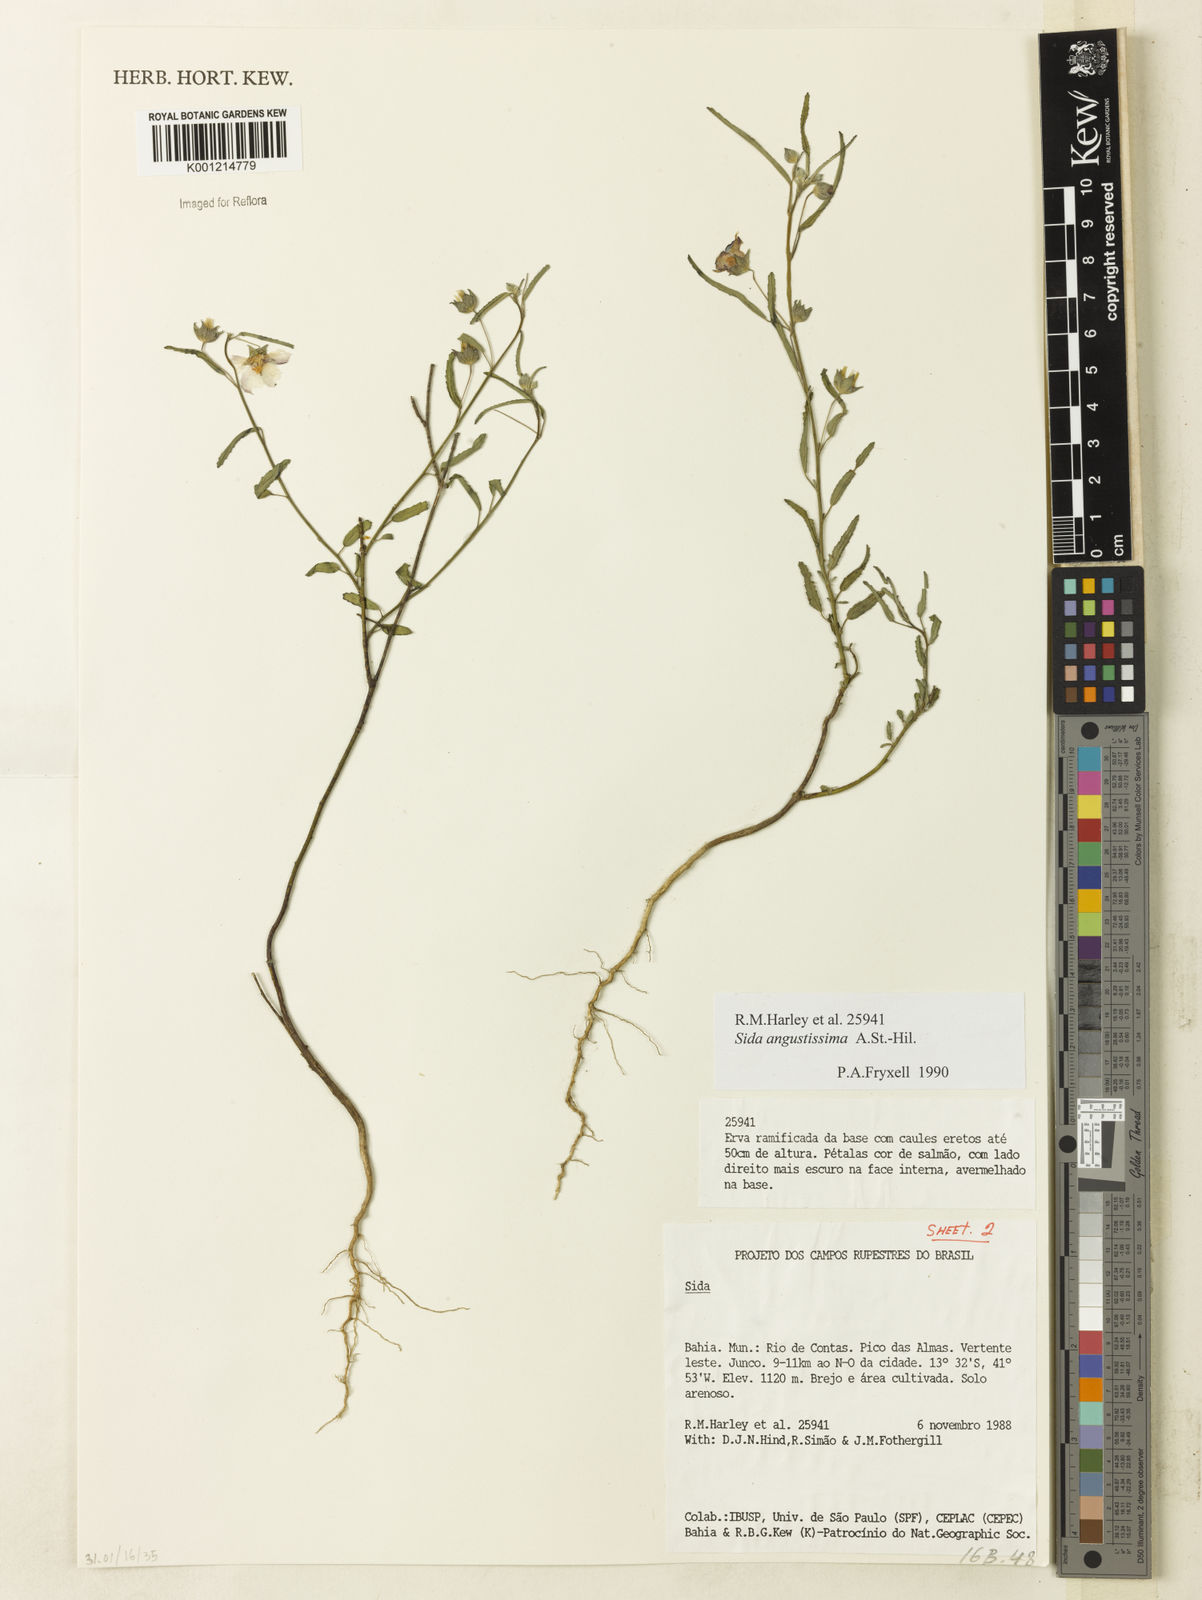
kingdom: Plantae
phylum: Tracheophyta
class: Magnoliopsida
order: Malvales
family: Malvaceae
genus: Sida
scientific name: Sida angustissima
